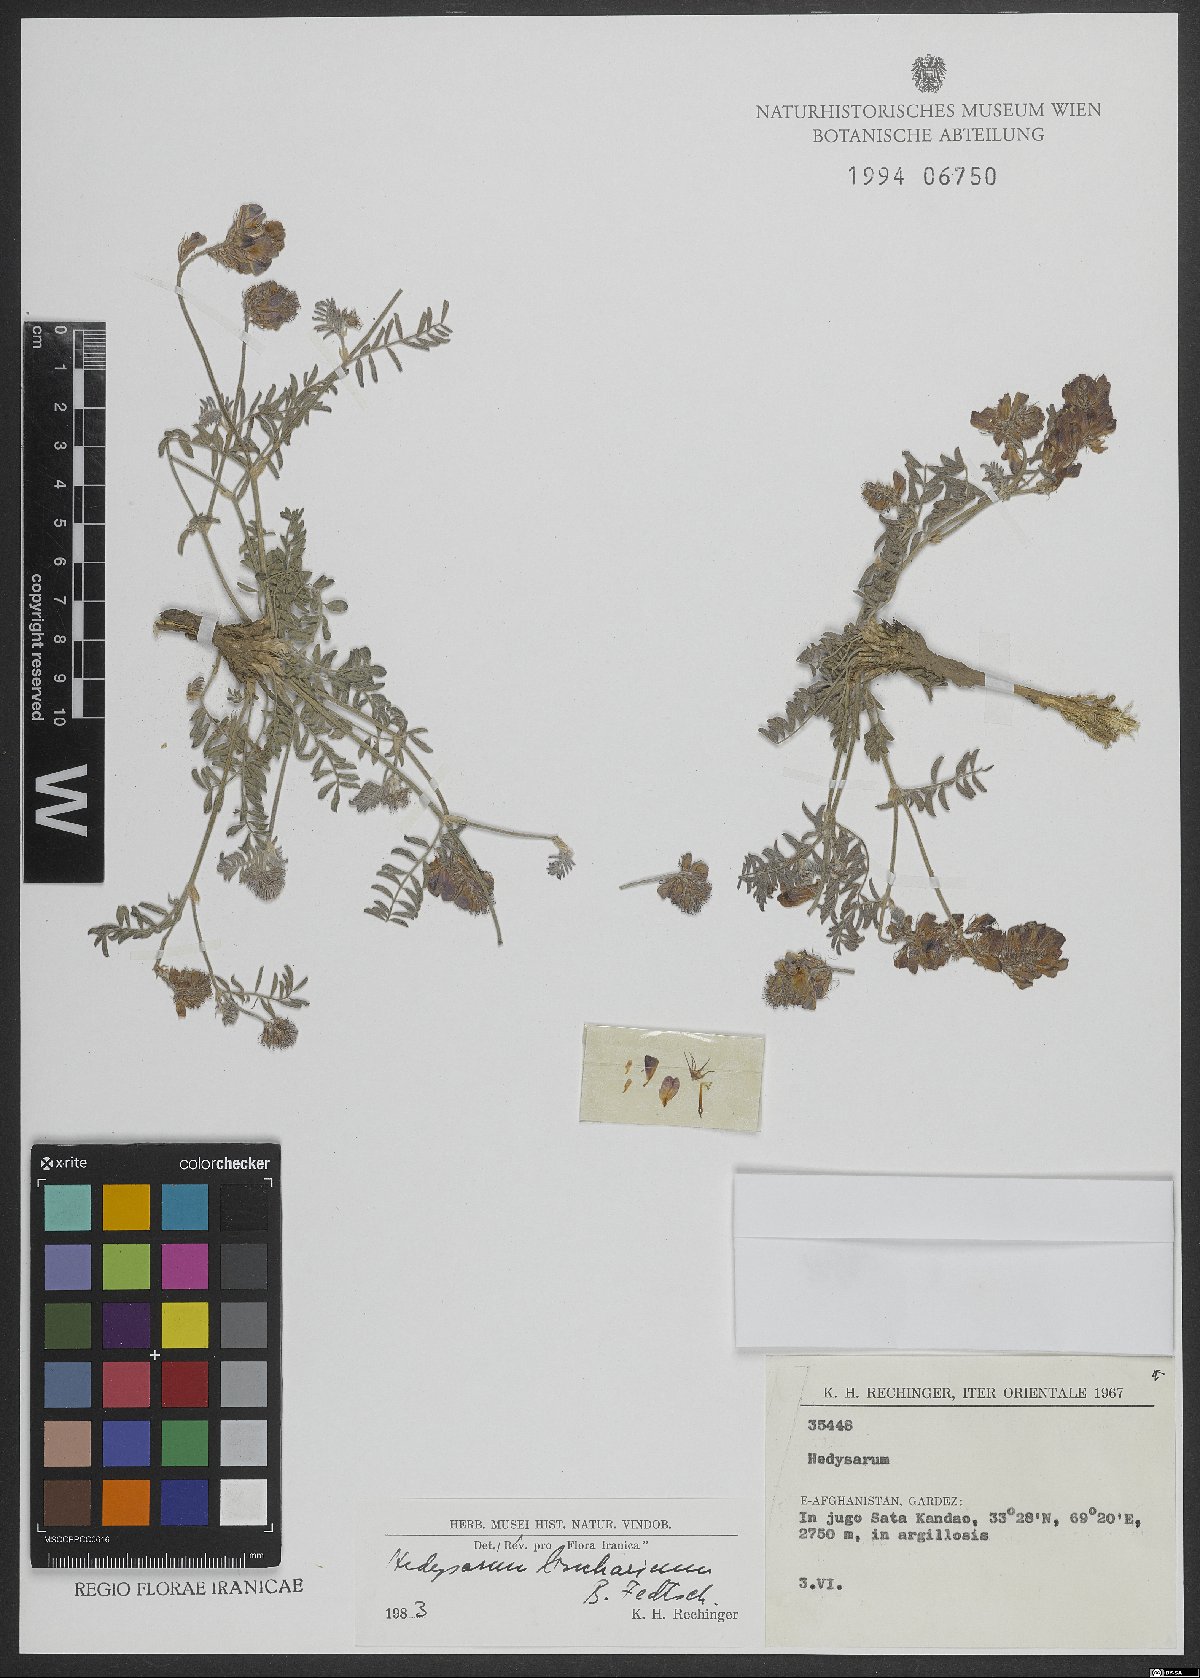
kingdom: Plantae
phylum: Tracheophyta
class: Magnoliopsida
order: Fabales
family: Fabaceae
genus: Hedysarum
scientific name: Hedysarum bucharicum
